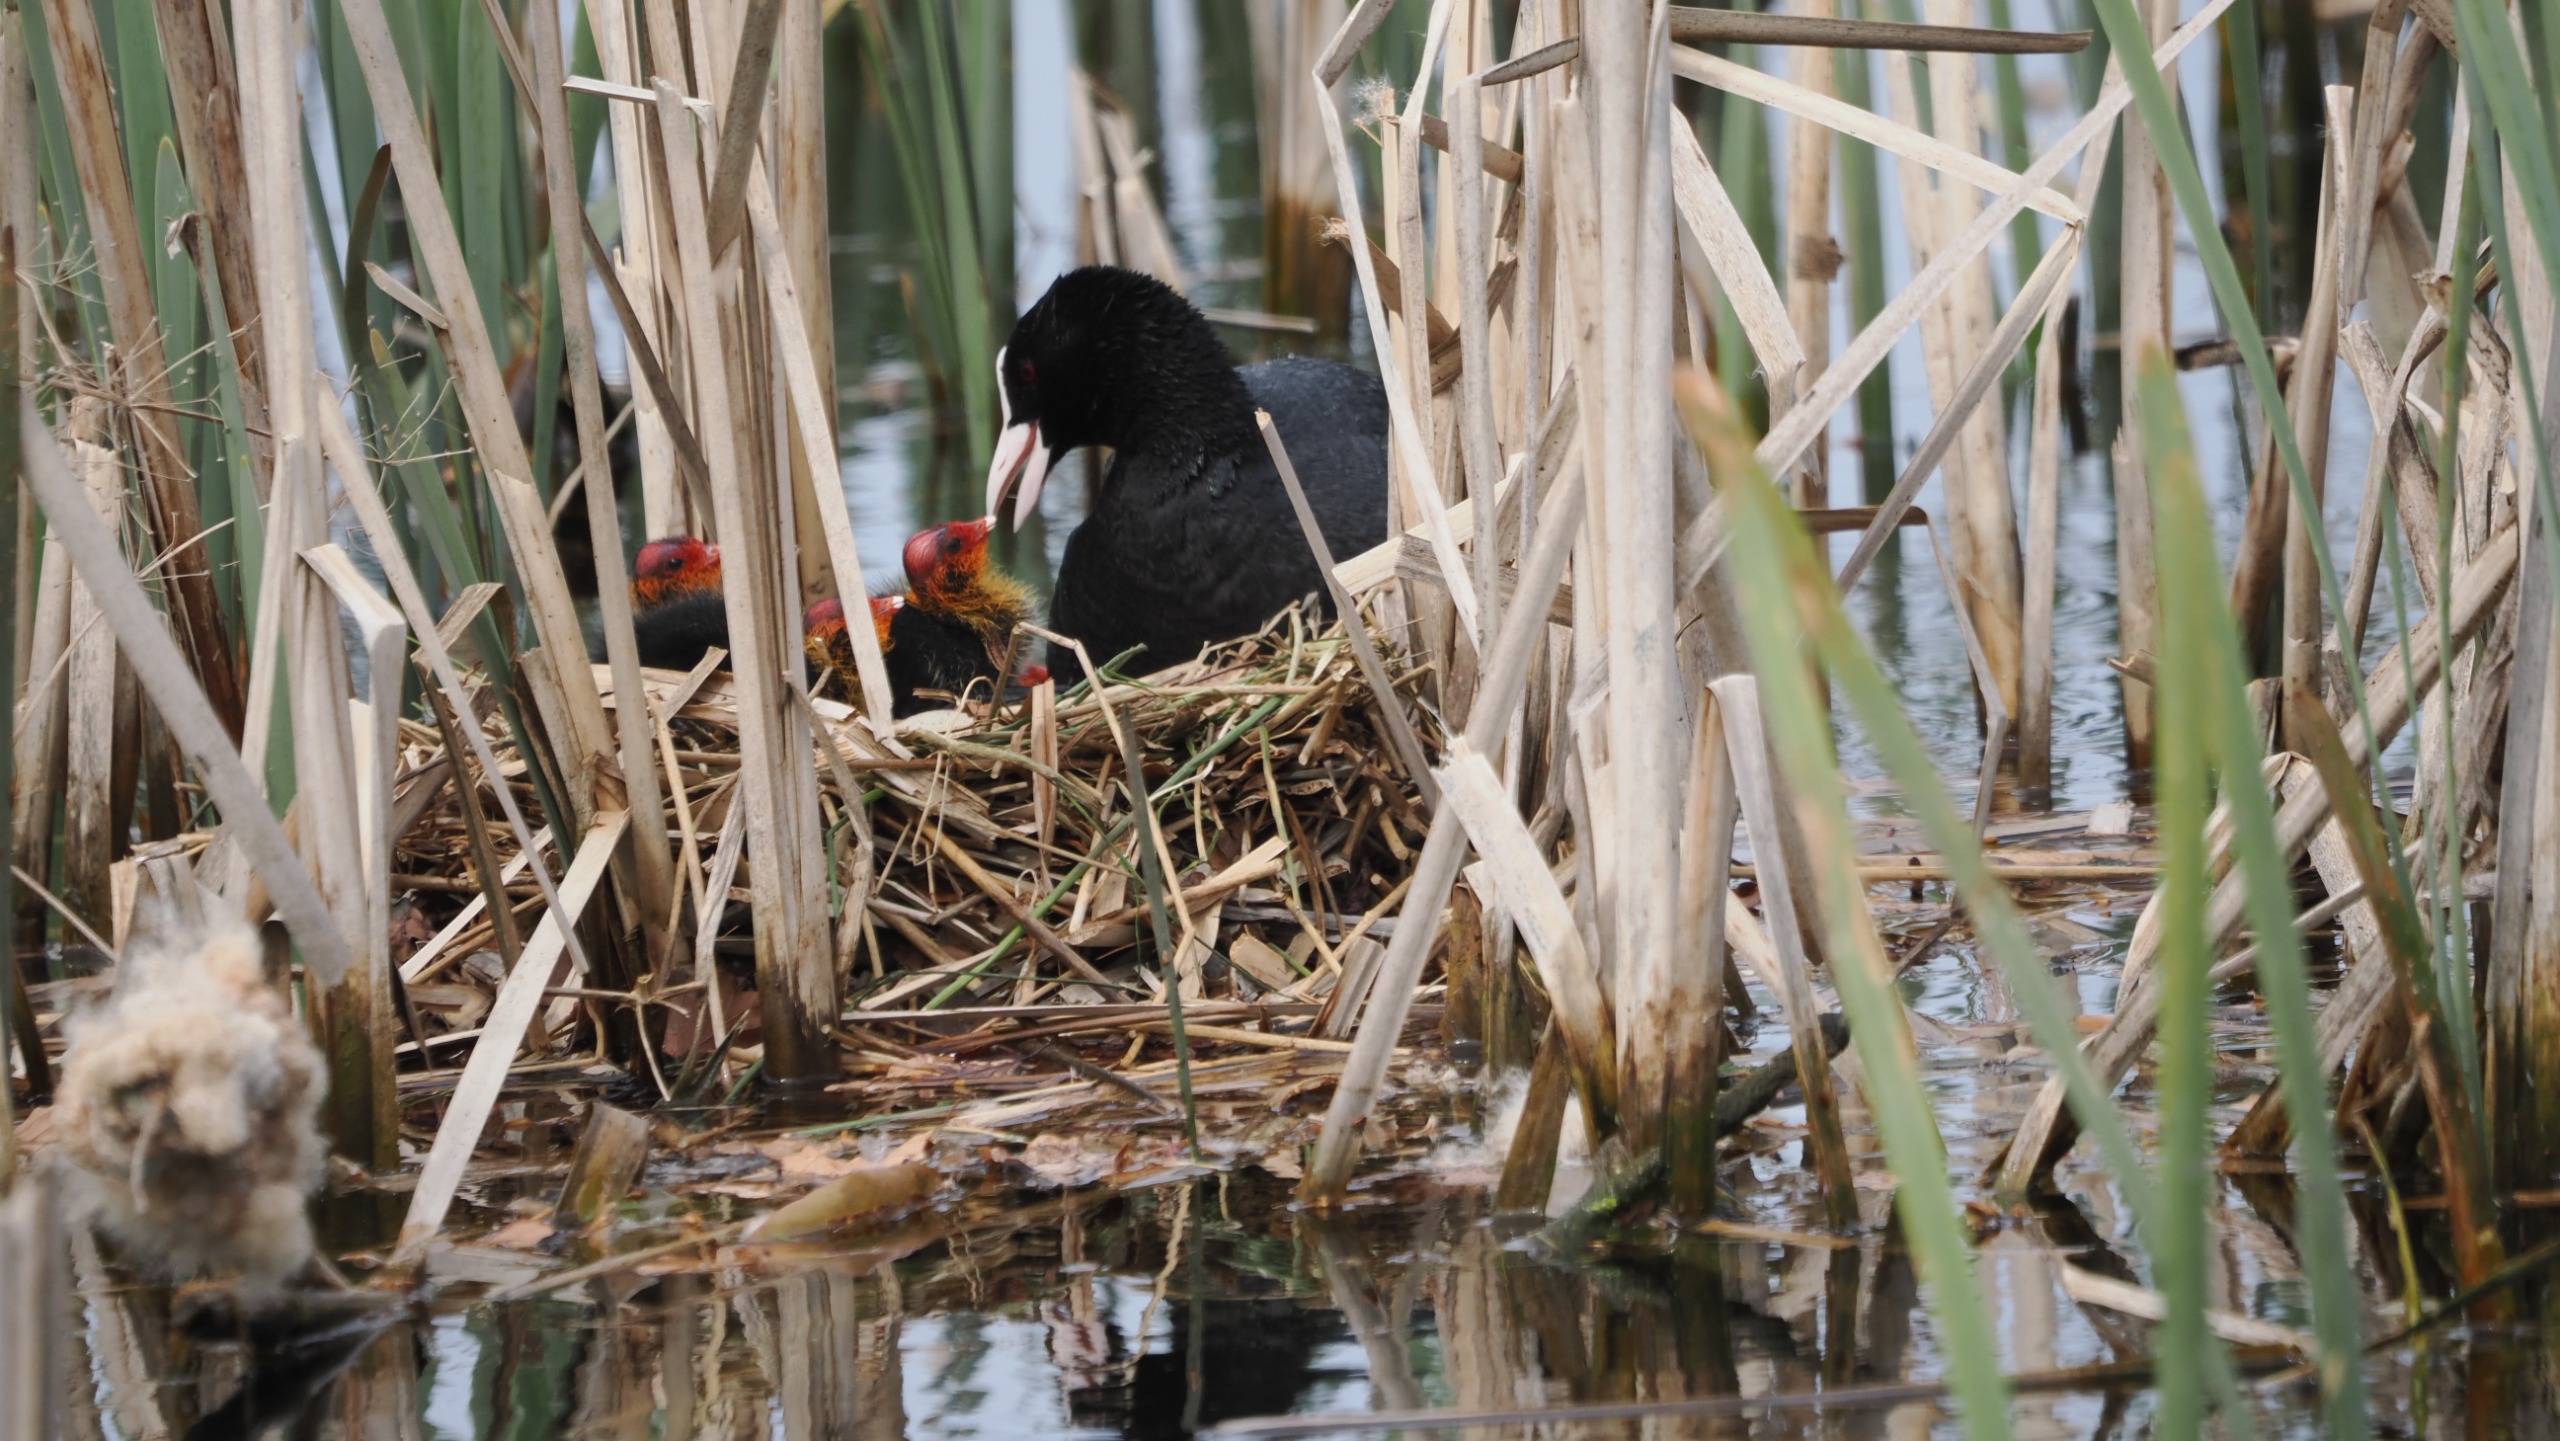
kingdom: Animalia
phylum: Chordata
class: Aves
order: Gruiformes
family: Rallidae
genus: Fulica
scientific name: Fulica atra
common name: Blishøne
